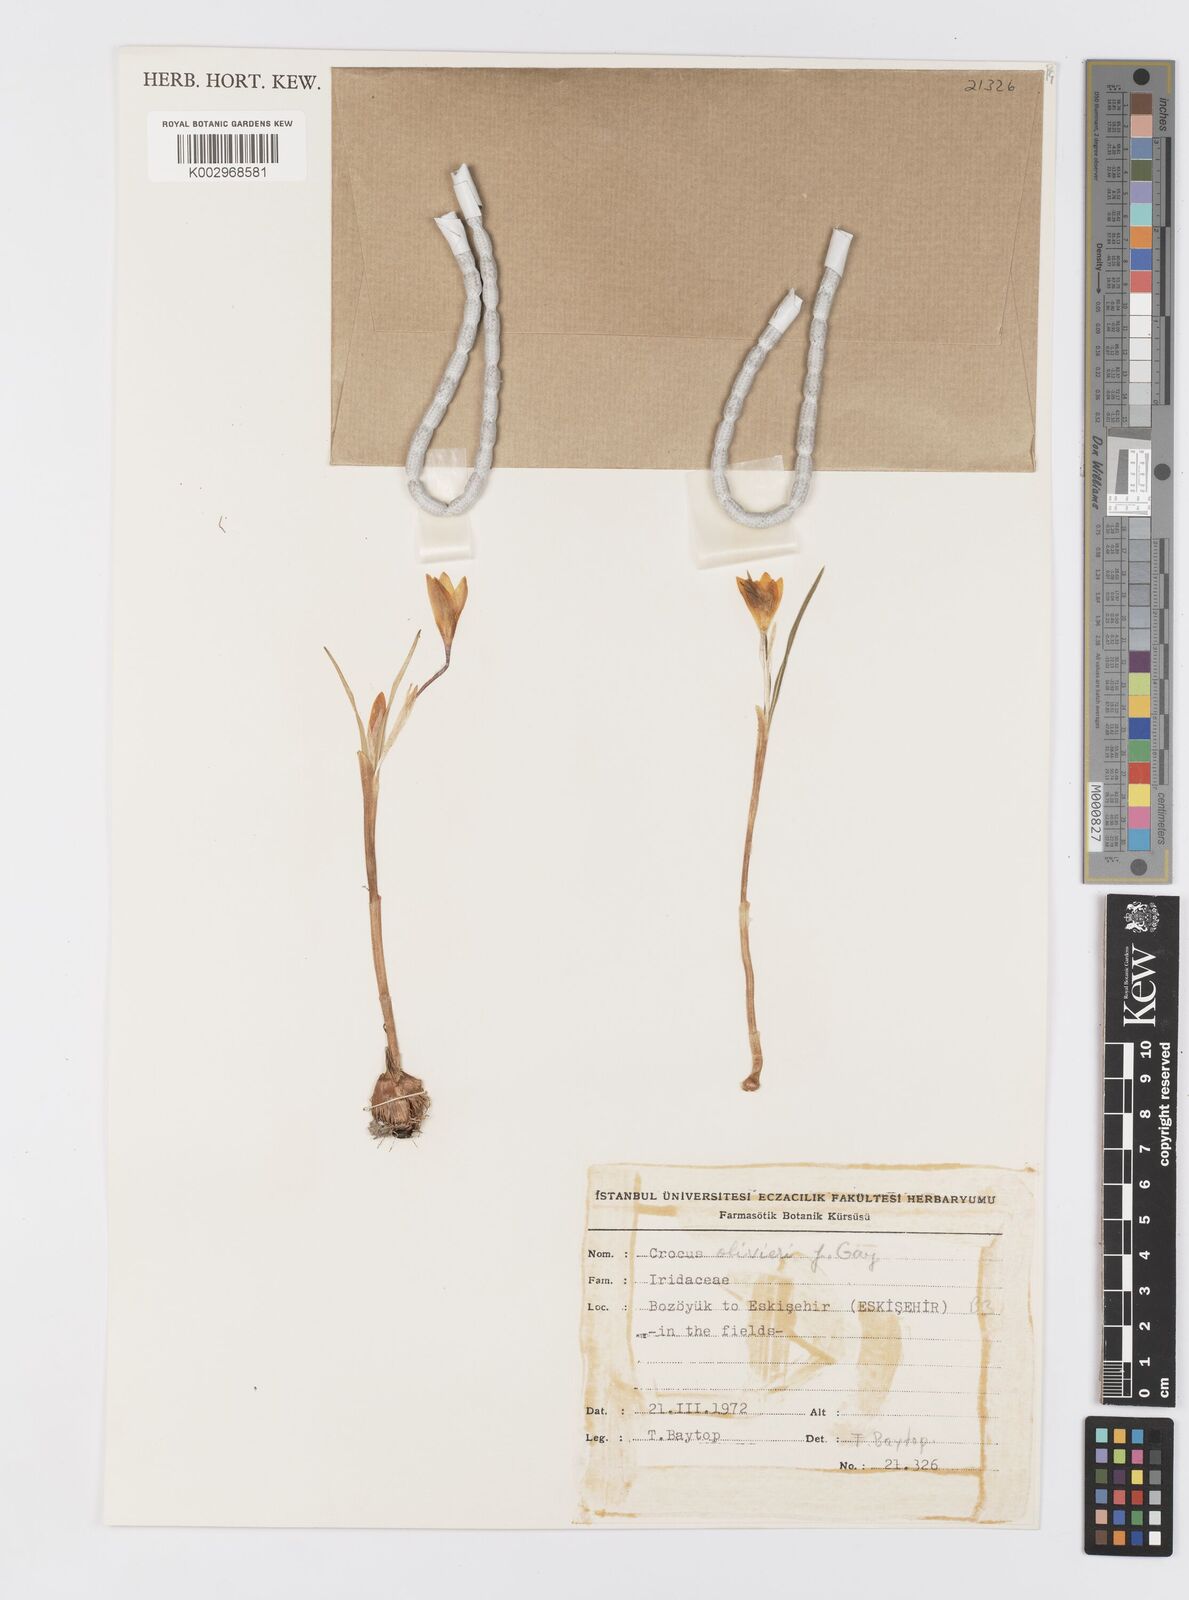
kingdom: Plantae
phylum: Tracheophyta
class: Liliopsida
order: Asparagales
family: Iridaceae
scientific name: Iridaceae
